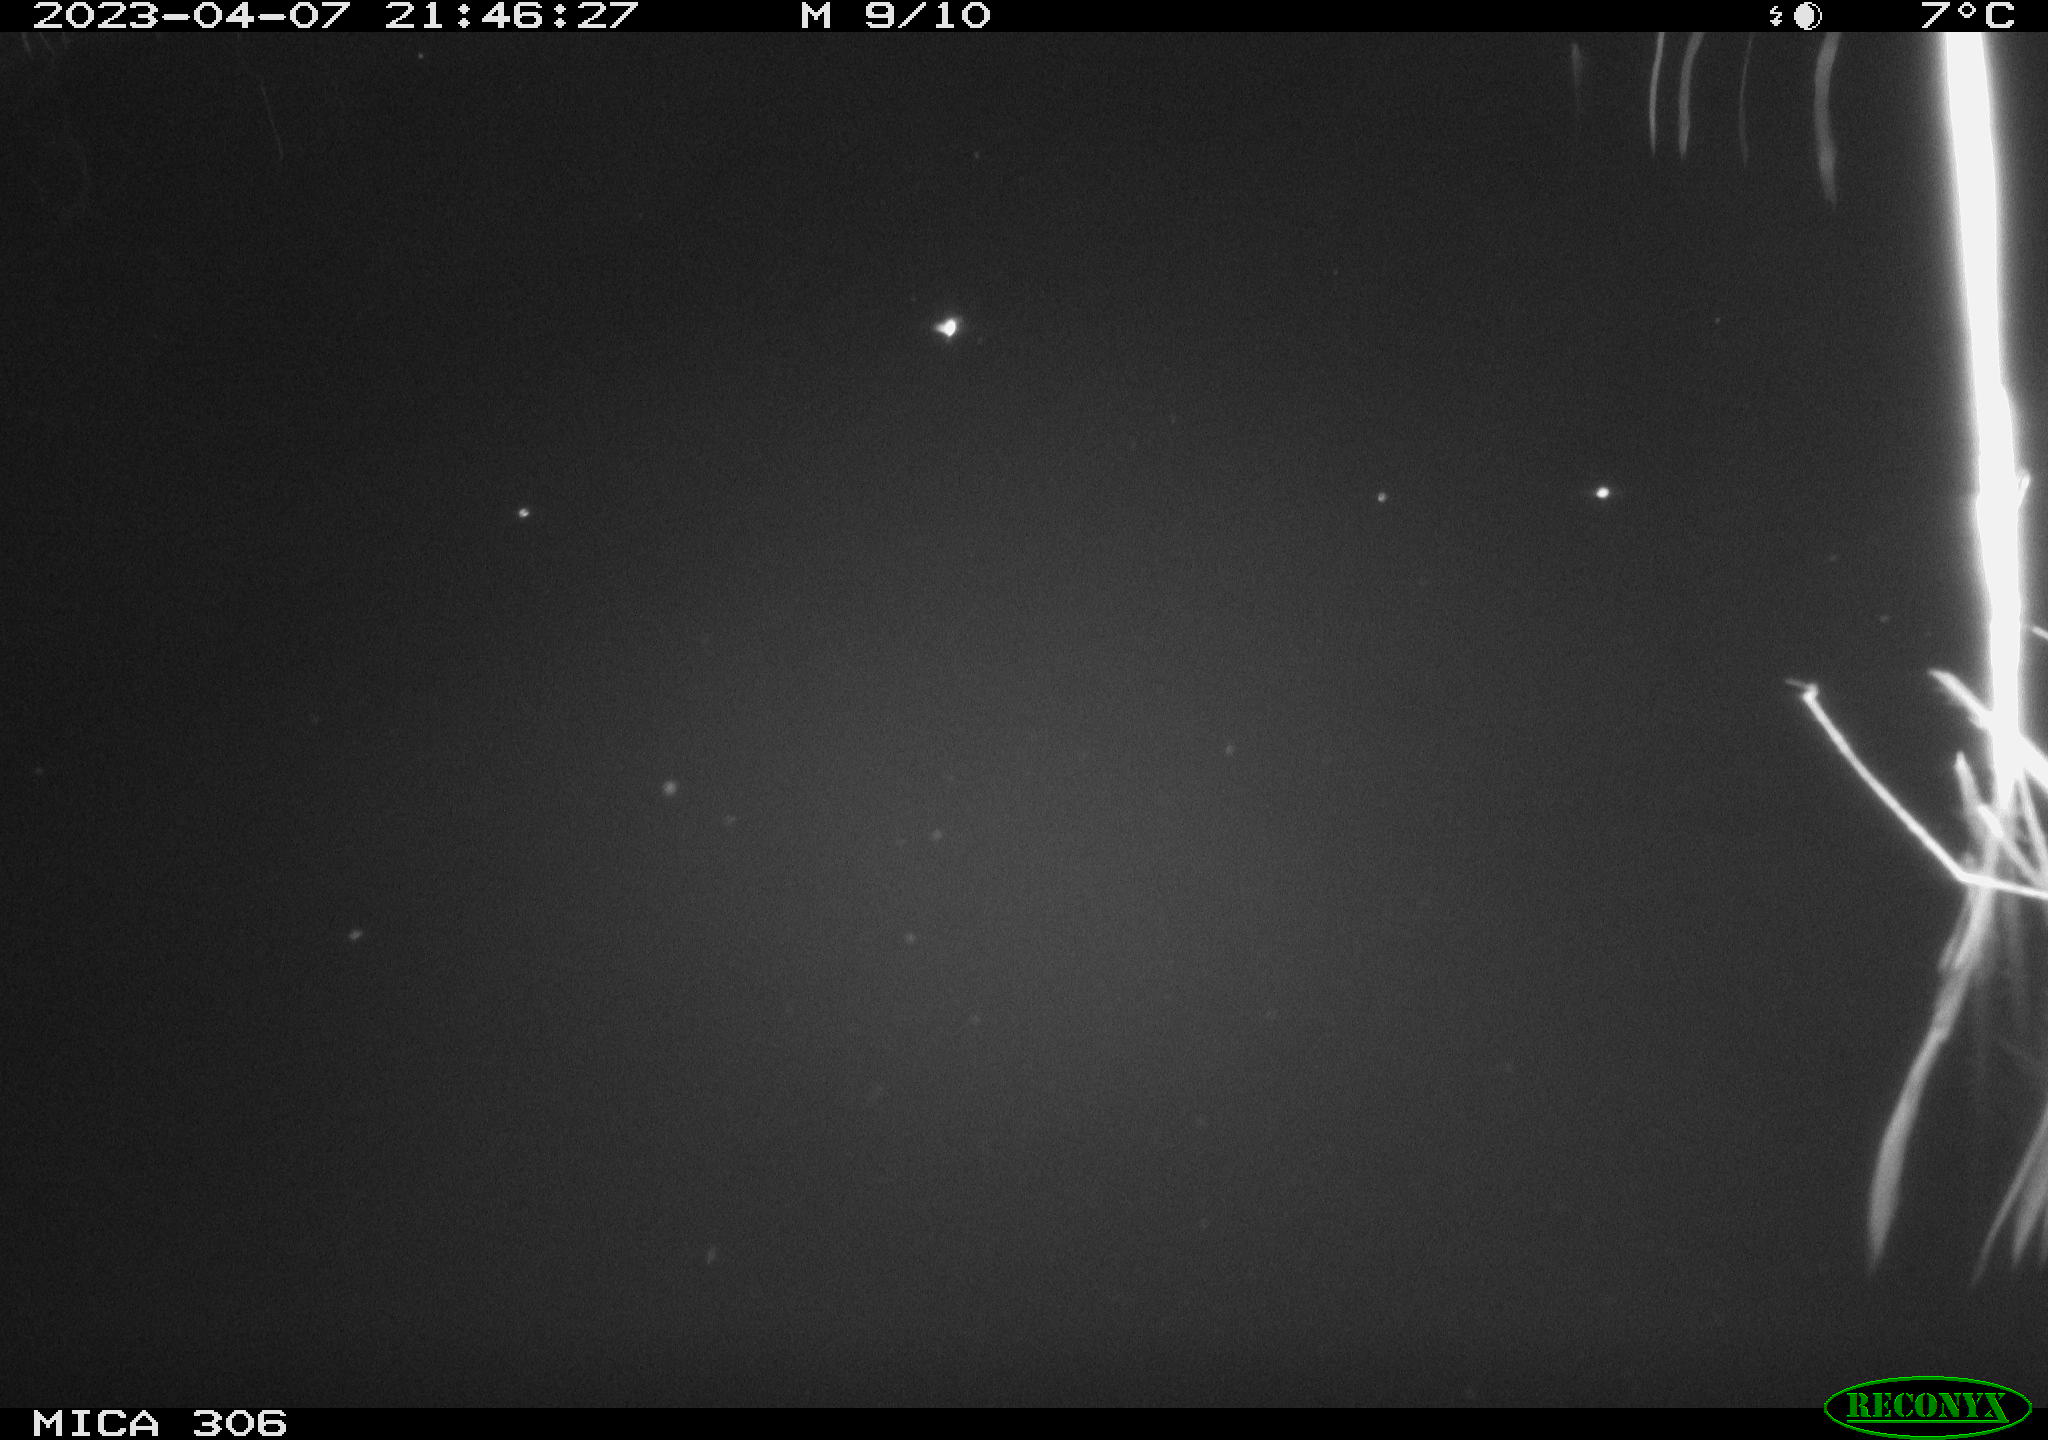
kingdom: Animalia
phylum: Chordata
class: Aves
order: Anseriformes
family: Anatidae
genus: Anas
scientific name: Anas
